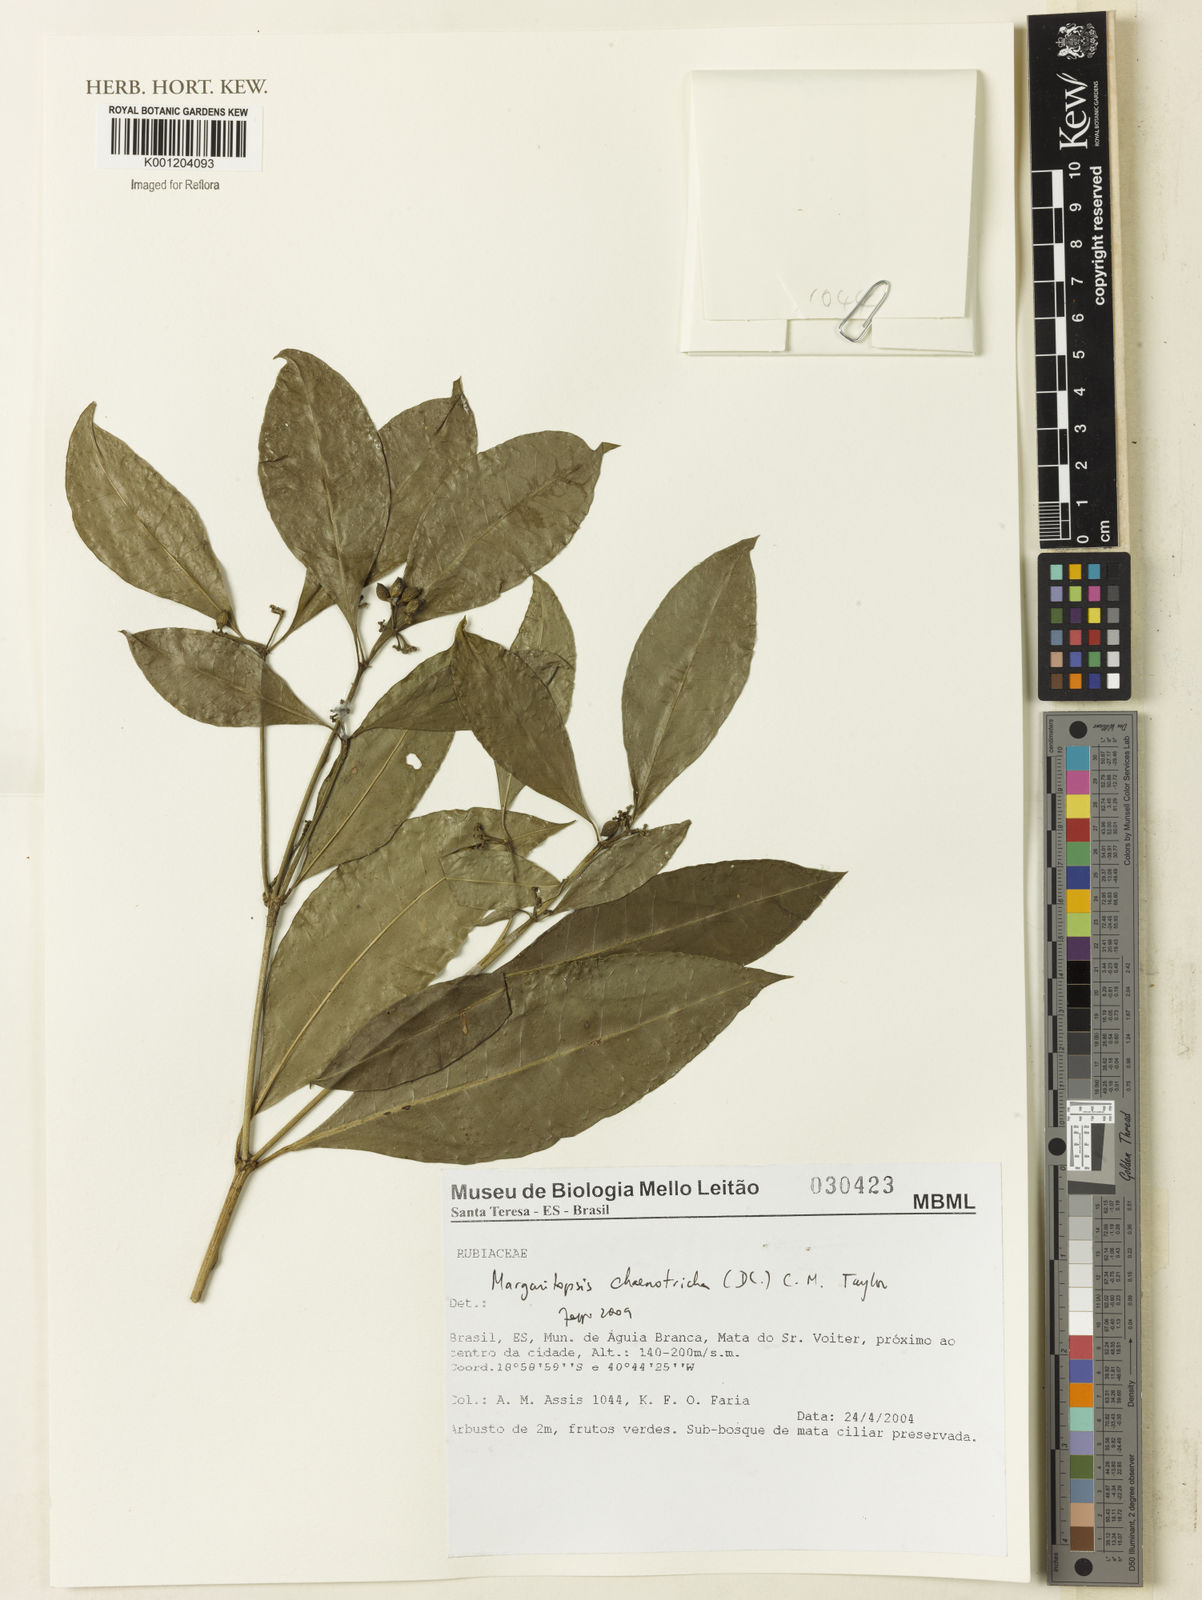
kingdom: Plantae
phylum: Tracheophyta
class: Magnoliopsida
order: Gentianales
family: Rubiaceae
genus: Eumachia
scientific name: Eumachia chaenotricha
